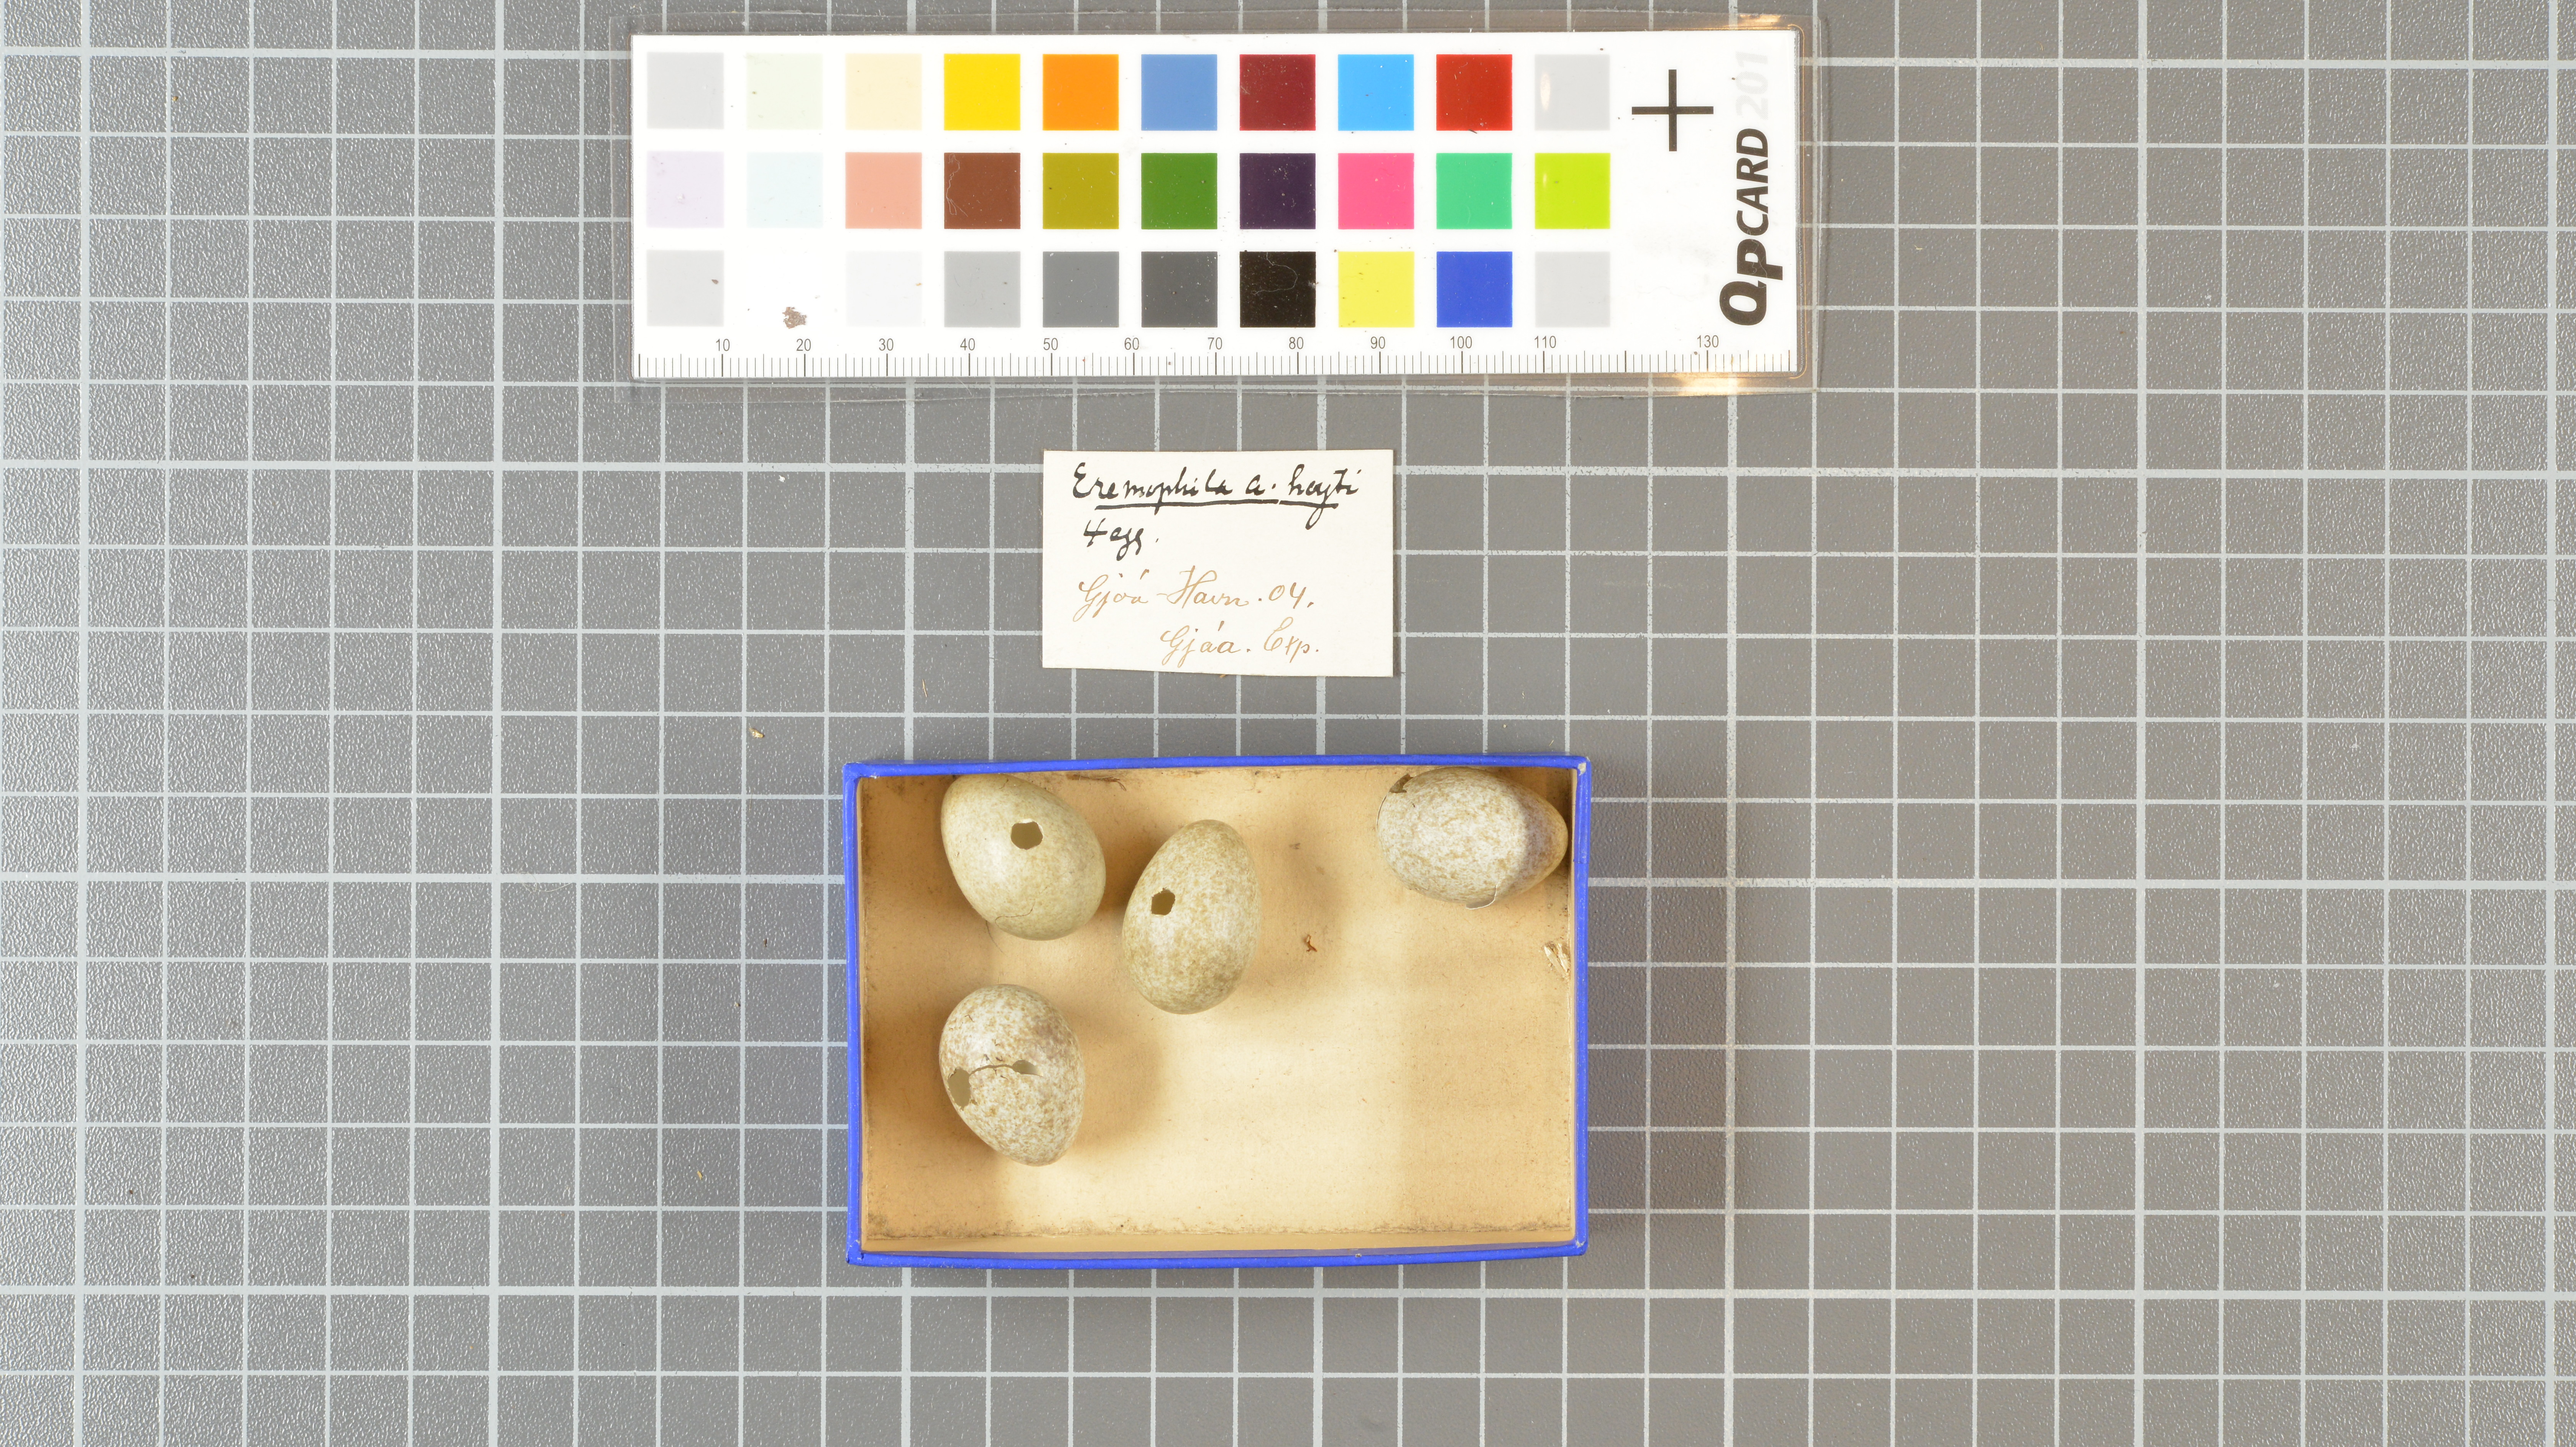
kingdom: Animalia
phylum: Chordata
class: Aves
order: Passeriformes
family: Alaudidae
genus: Eremophila
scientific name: Eremophila alpestris
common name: Horned lark
